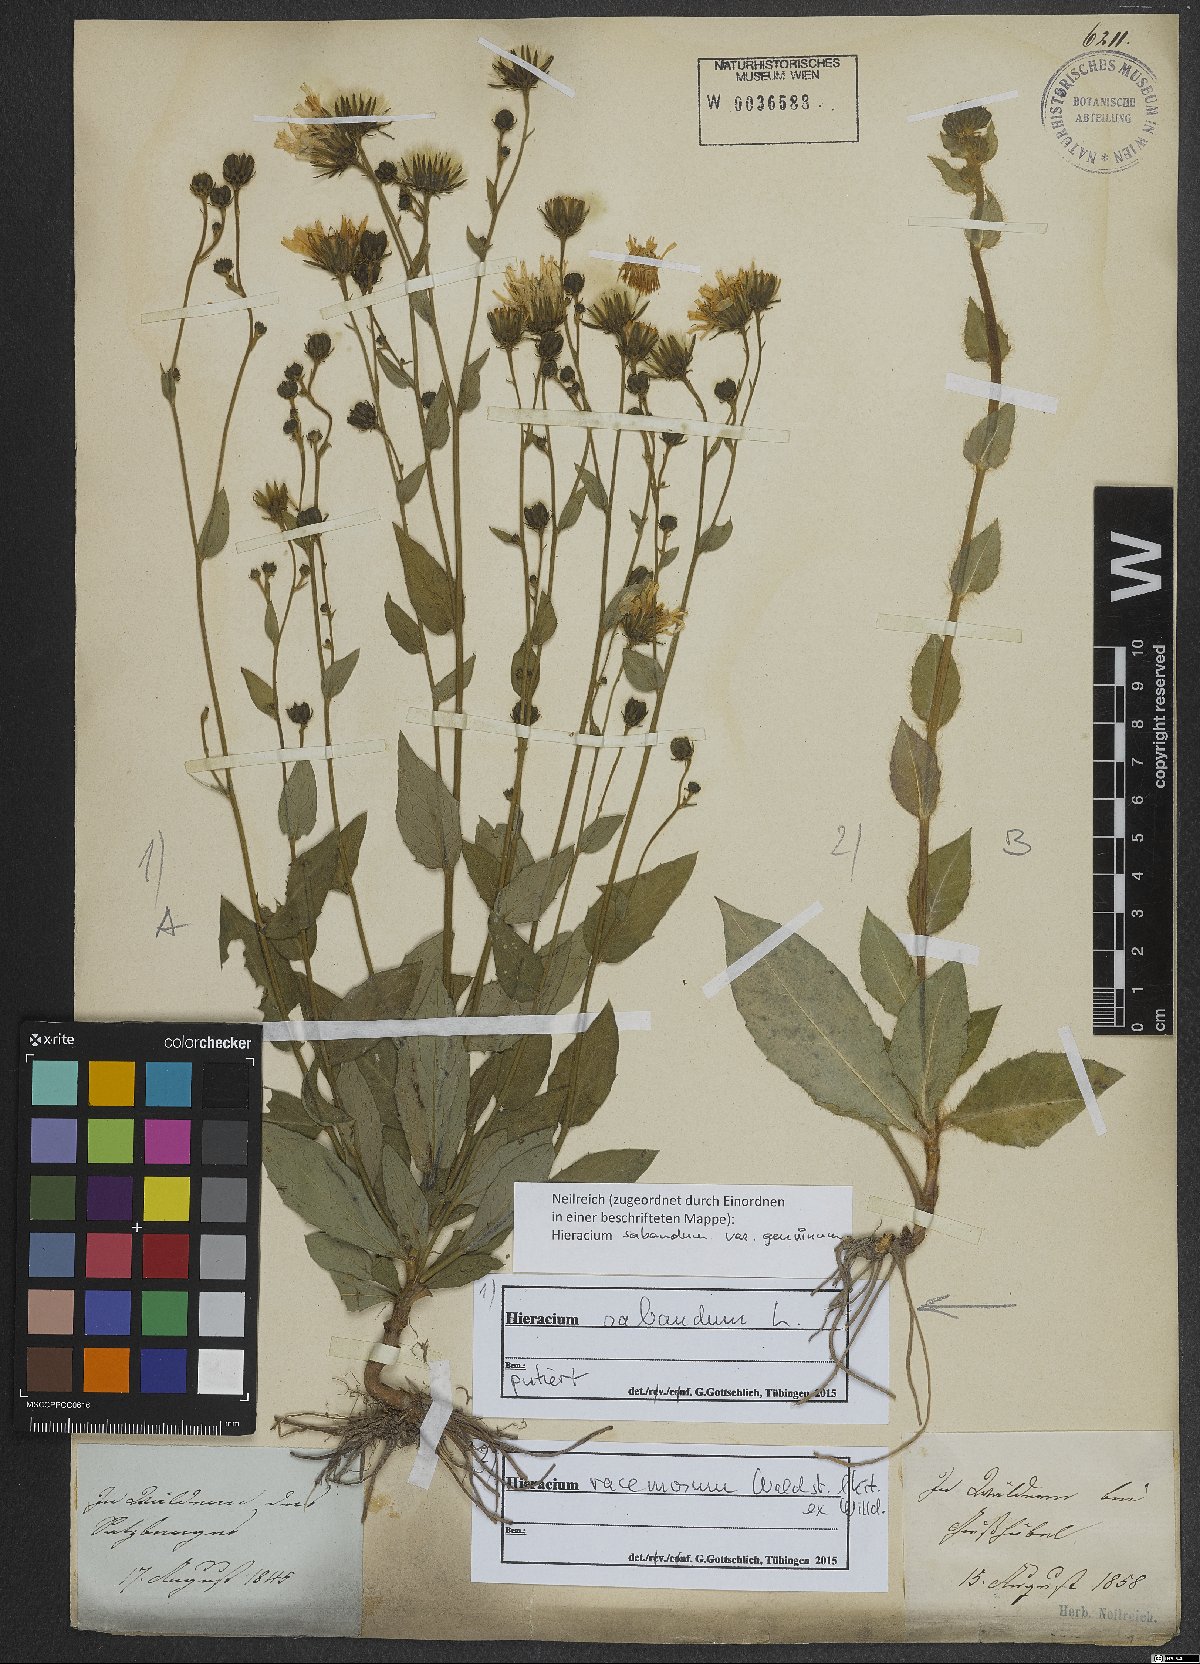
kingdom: Plantae
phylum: Tracheophyta
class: Magnoliopsida
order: Asterales
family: Asteraceae
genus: Hieracium
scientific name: Hieracium racemosum
